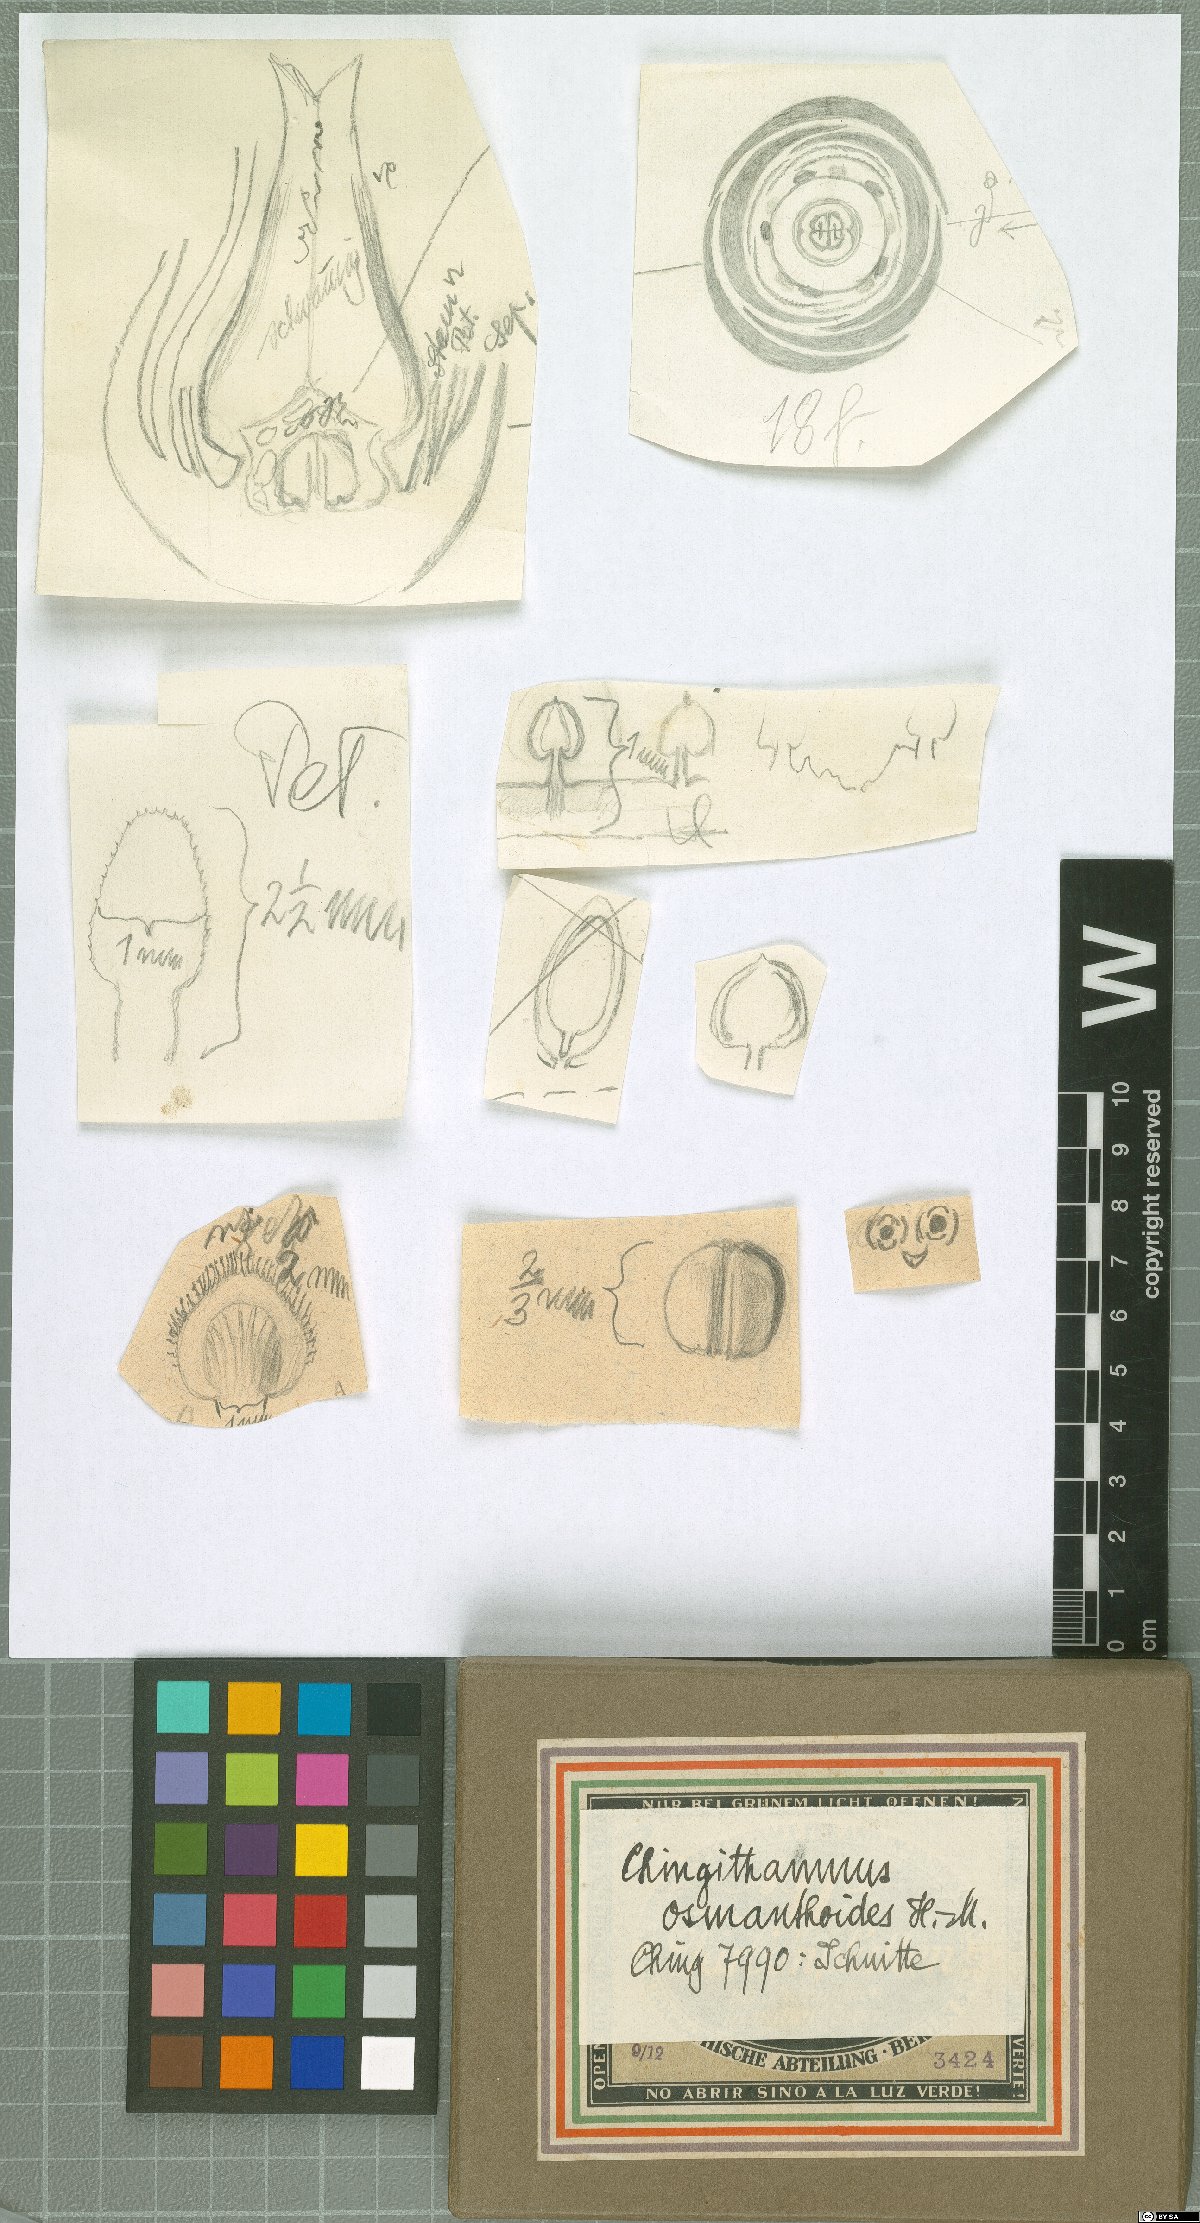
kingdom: Plantae
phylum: Tracheophyta
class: Magnoliopsida
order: Celastrales
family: Celastraceae
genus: Microtropis
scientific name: Microtropis osmanthoides
